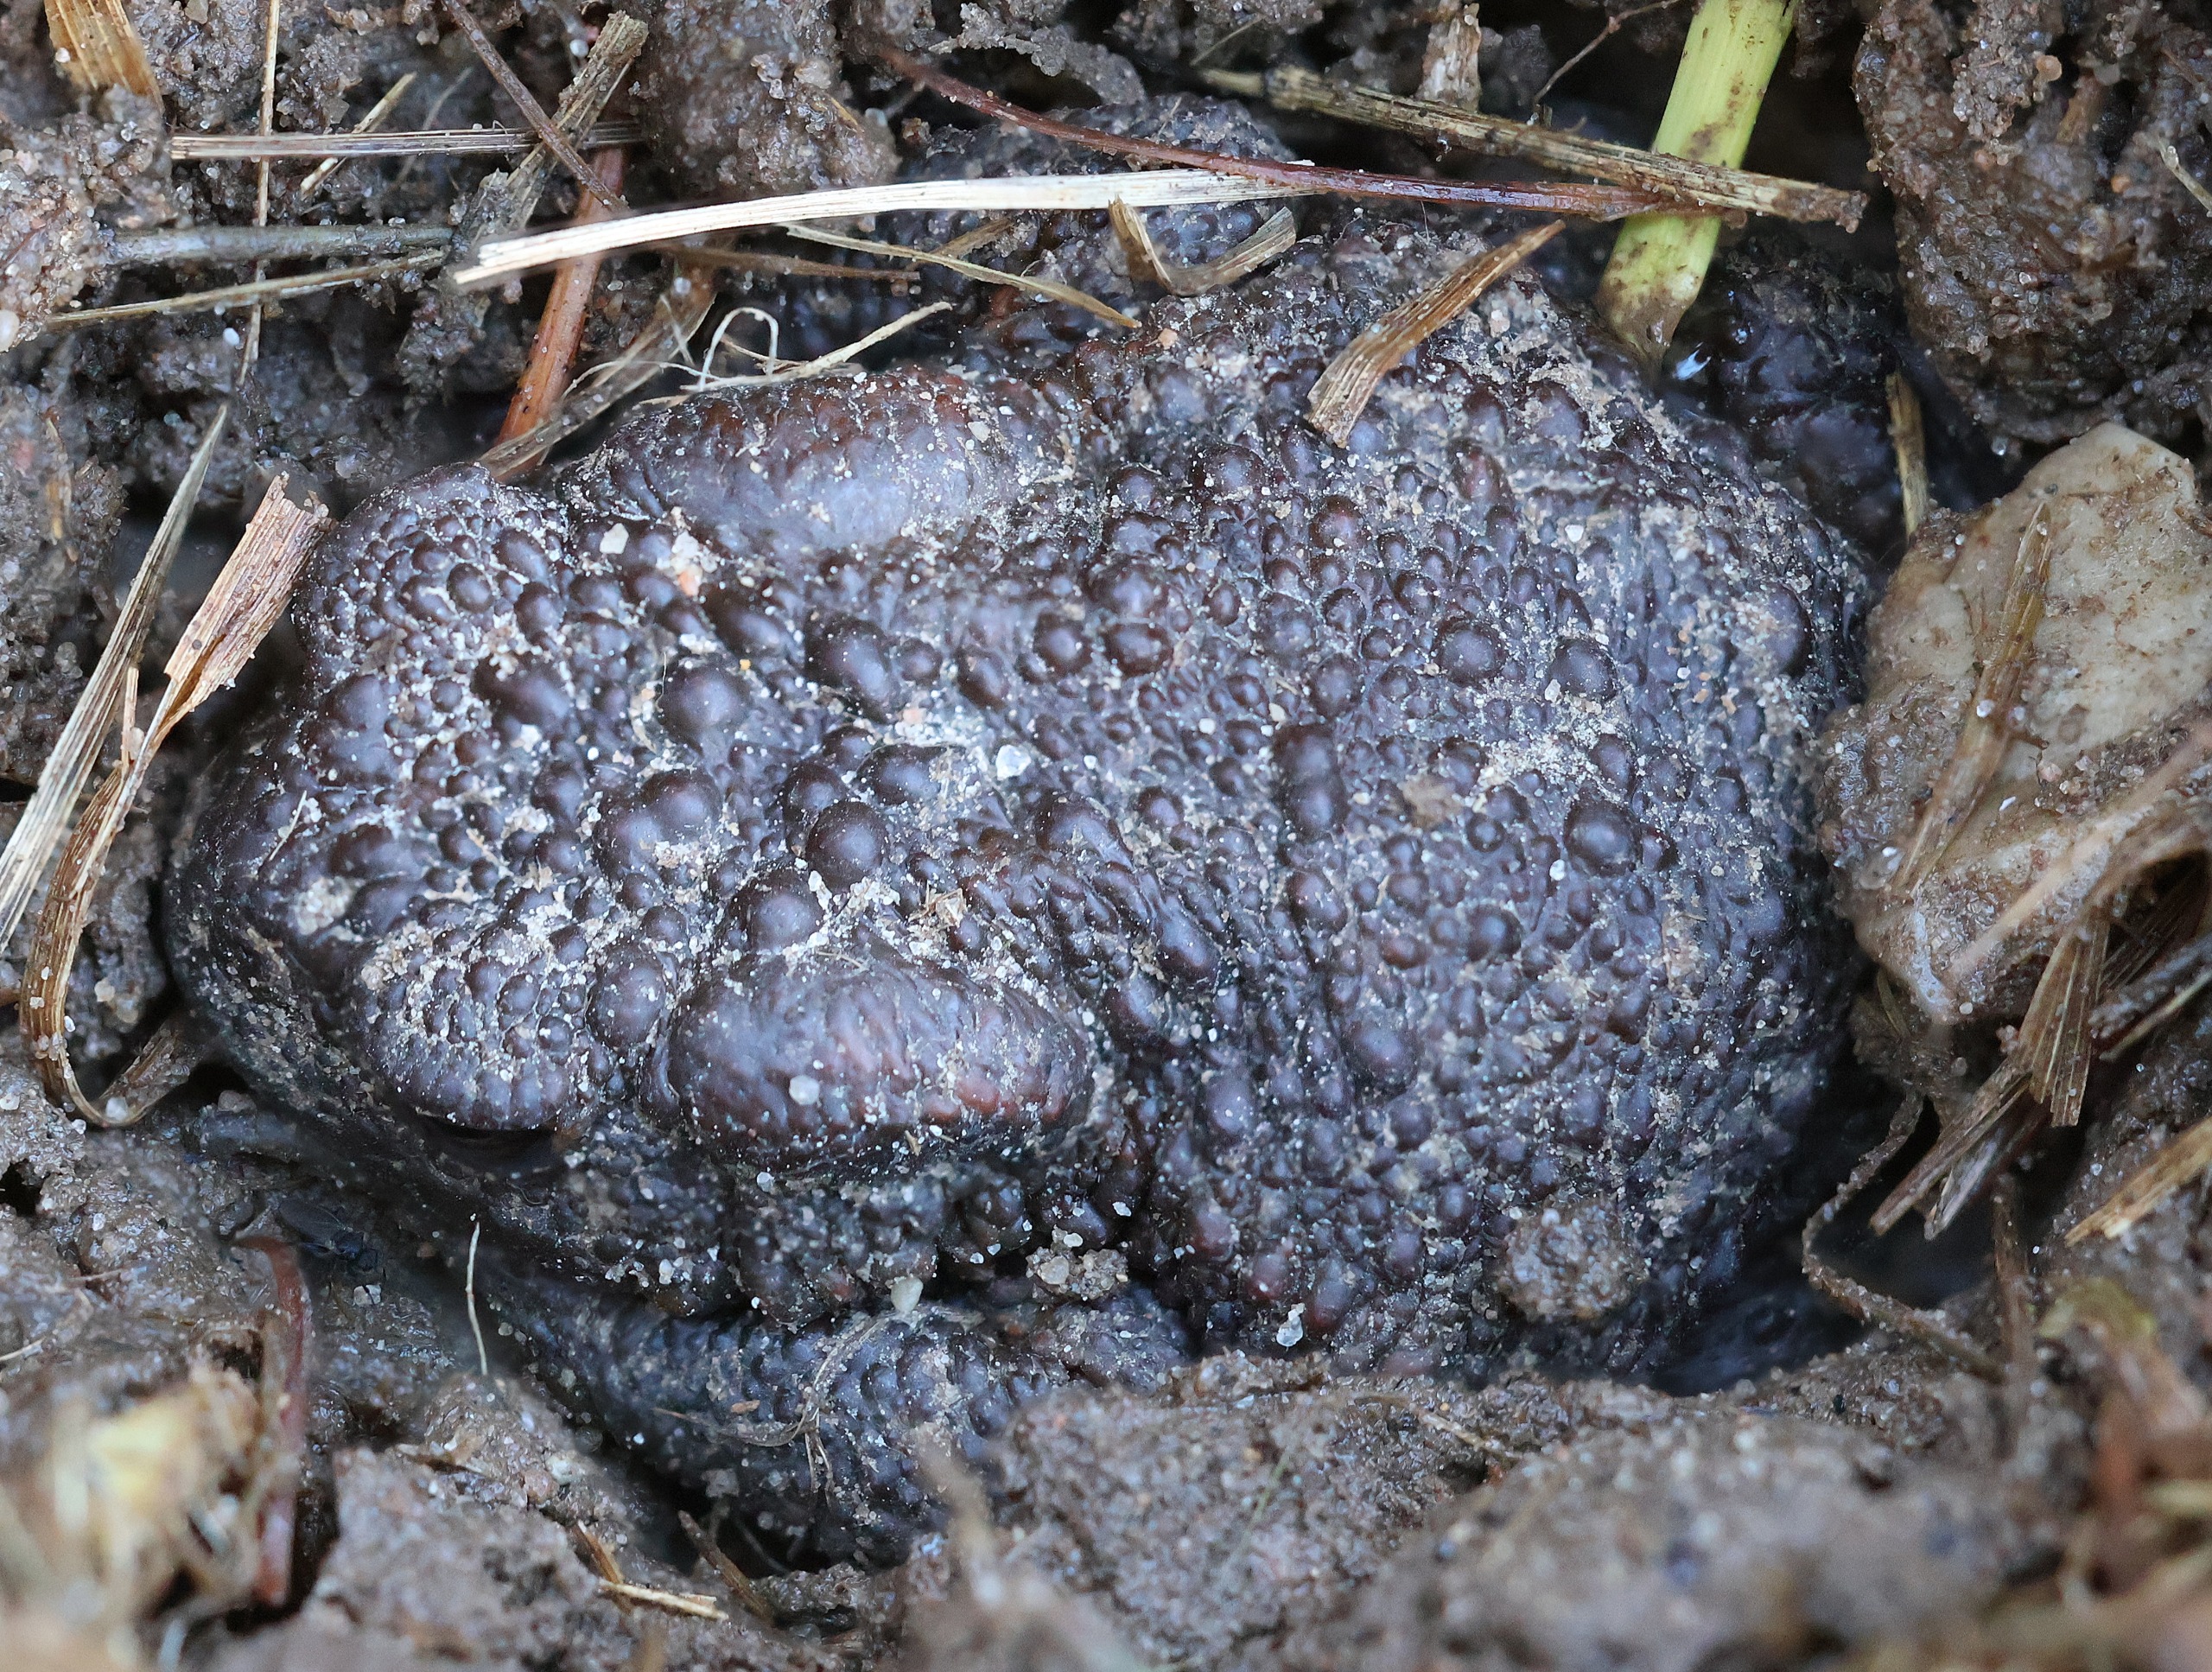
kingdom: Animalia
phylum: Chordata
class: Amphibia
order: Anura
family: Bufonidae
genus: Bufo
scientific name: Bufo bufo
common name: Skrubtudse
